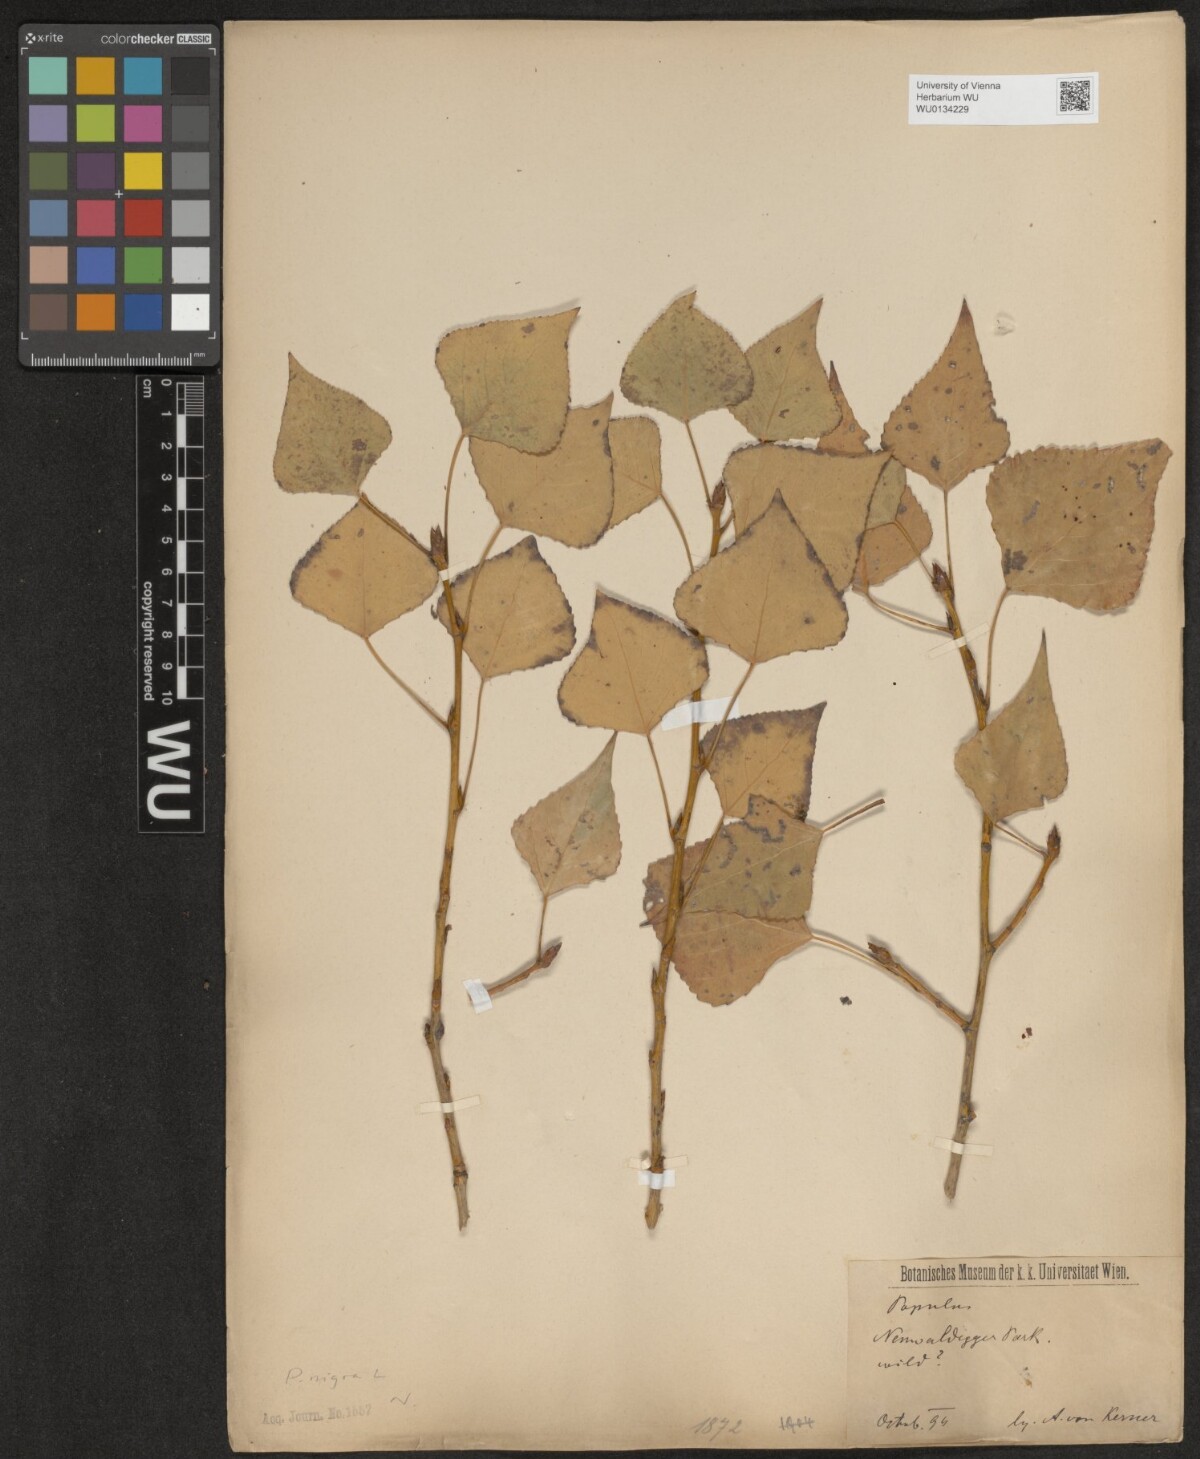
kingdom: Plantae
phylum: Tracheophyta
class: Magnoliopsida
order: Malpighiales
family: Salicaceae
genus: Populus
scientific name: Populus nigra
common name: Black poplar
